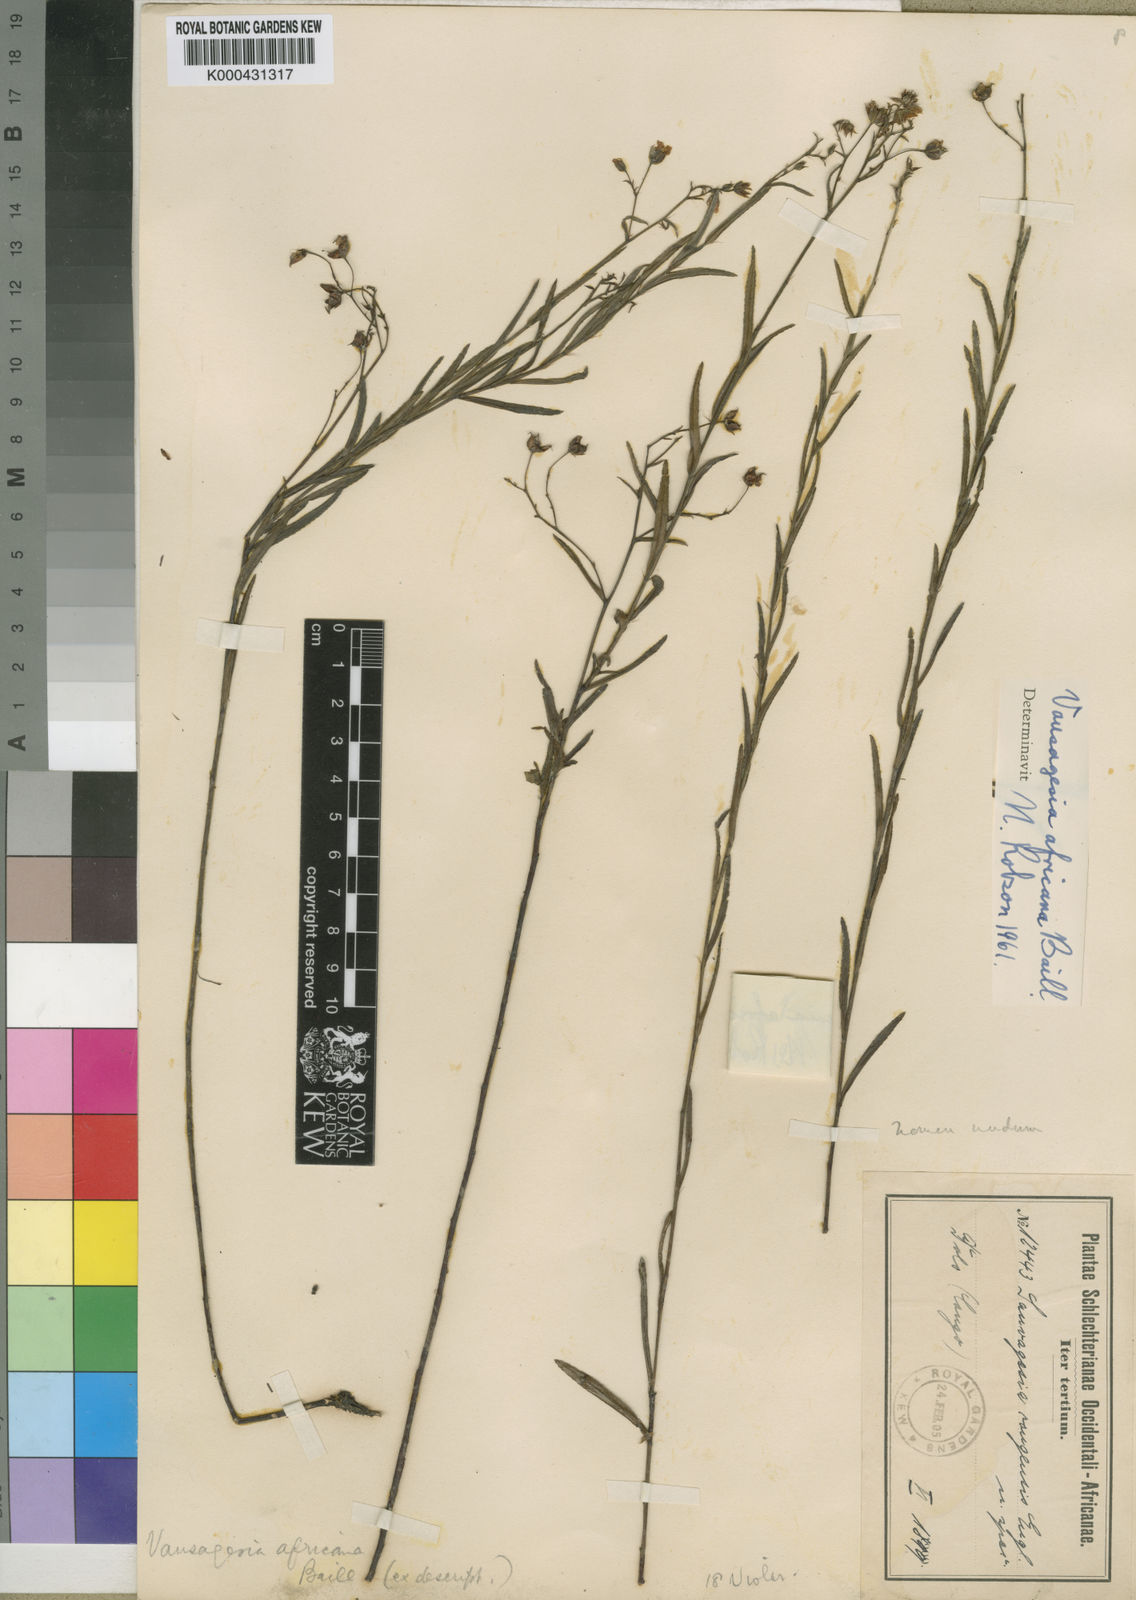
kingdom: Plantae
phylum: Tracheophyta
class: Magnoliopsida
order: Malpighiales
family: Ochnaceae
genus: Sauvagesia
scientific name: Sauvagesia africana
